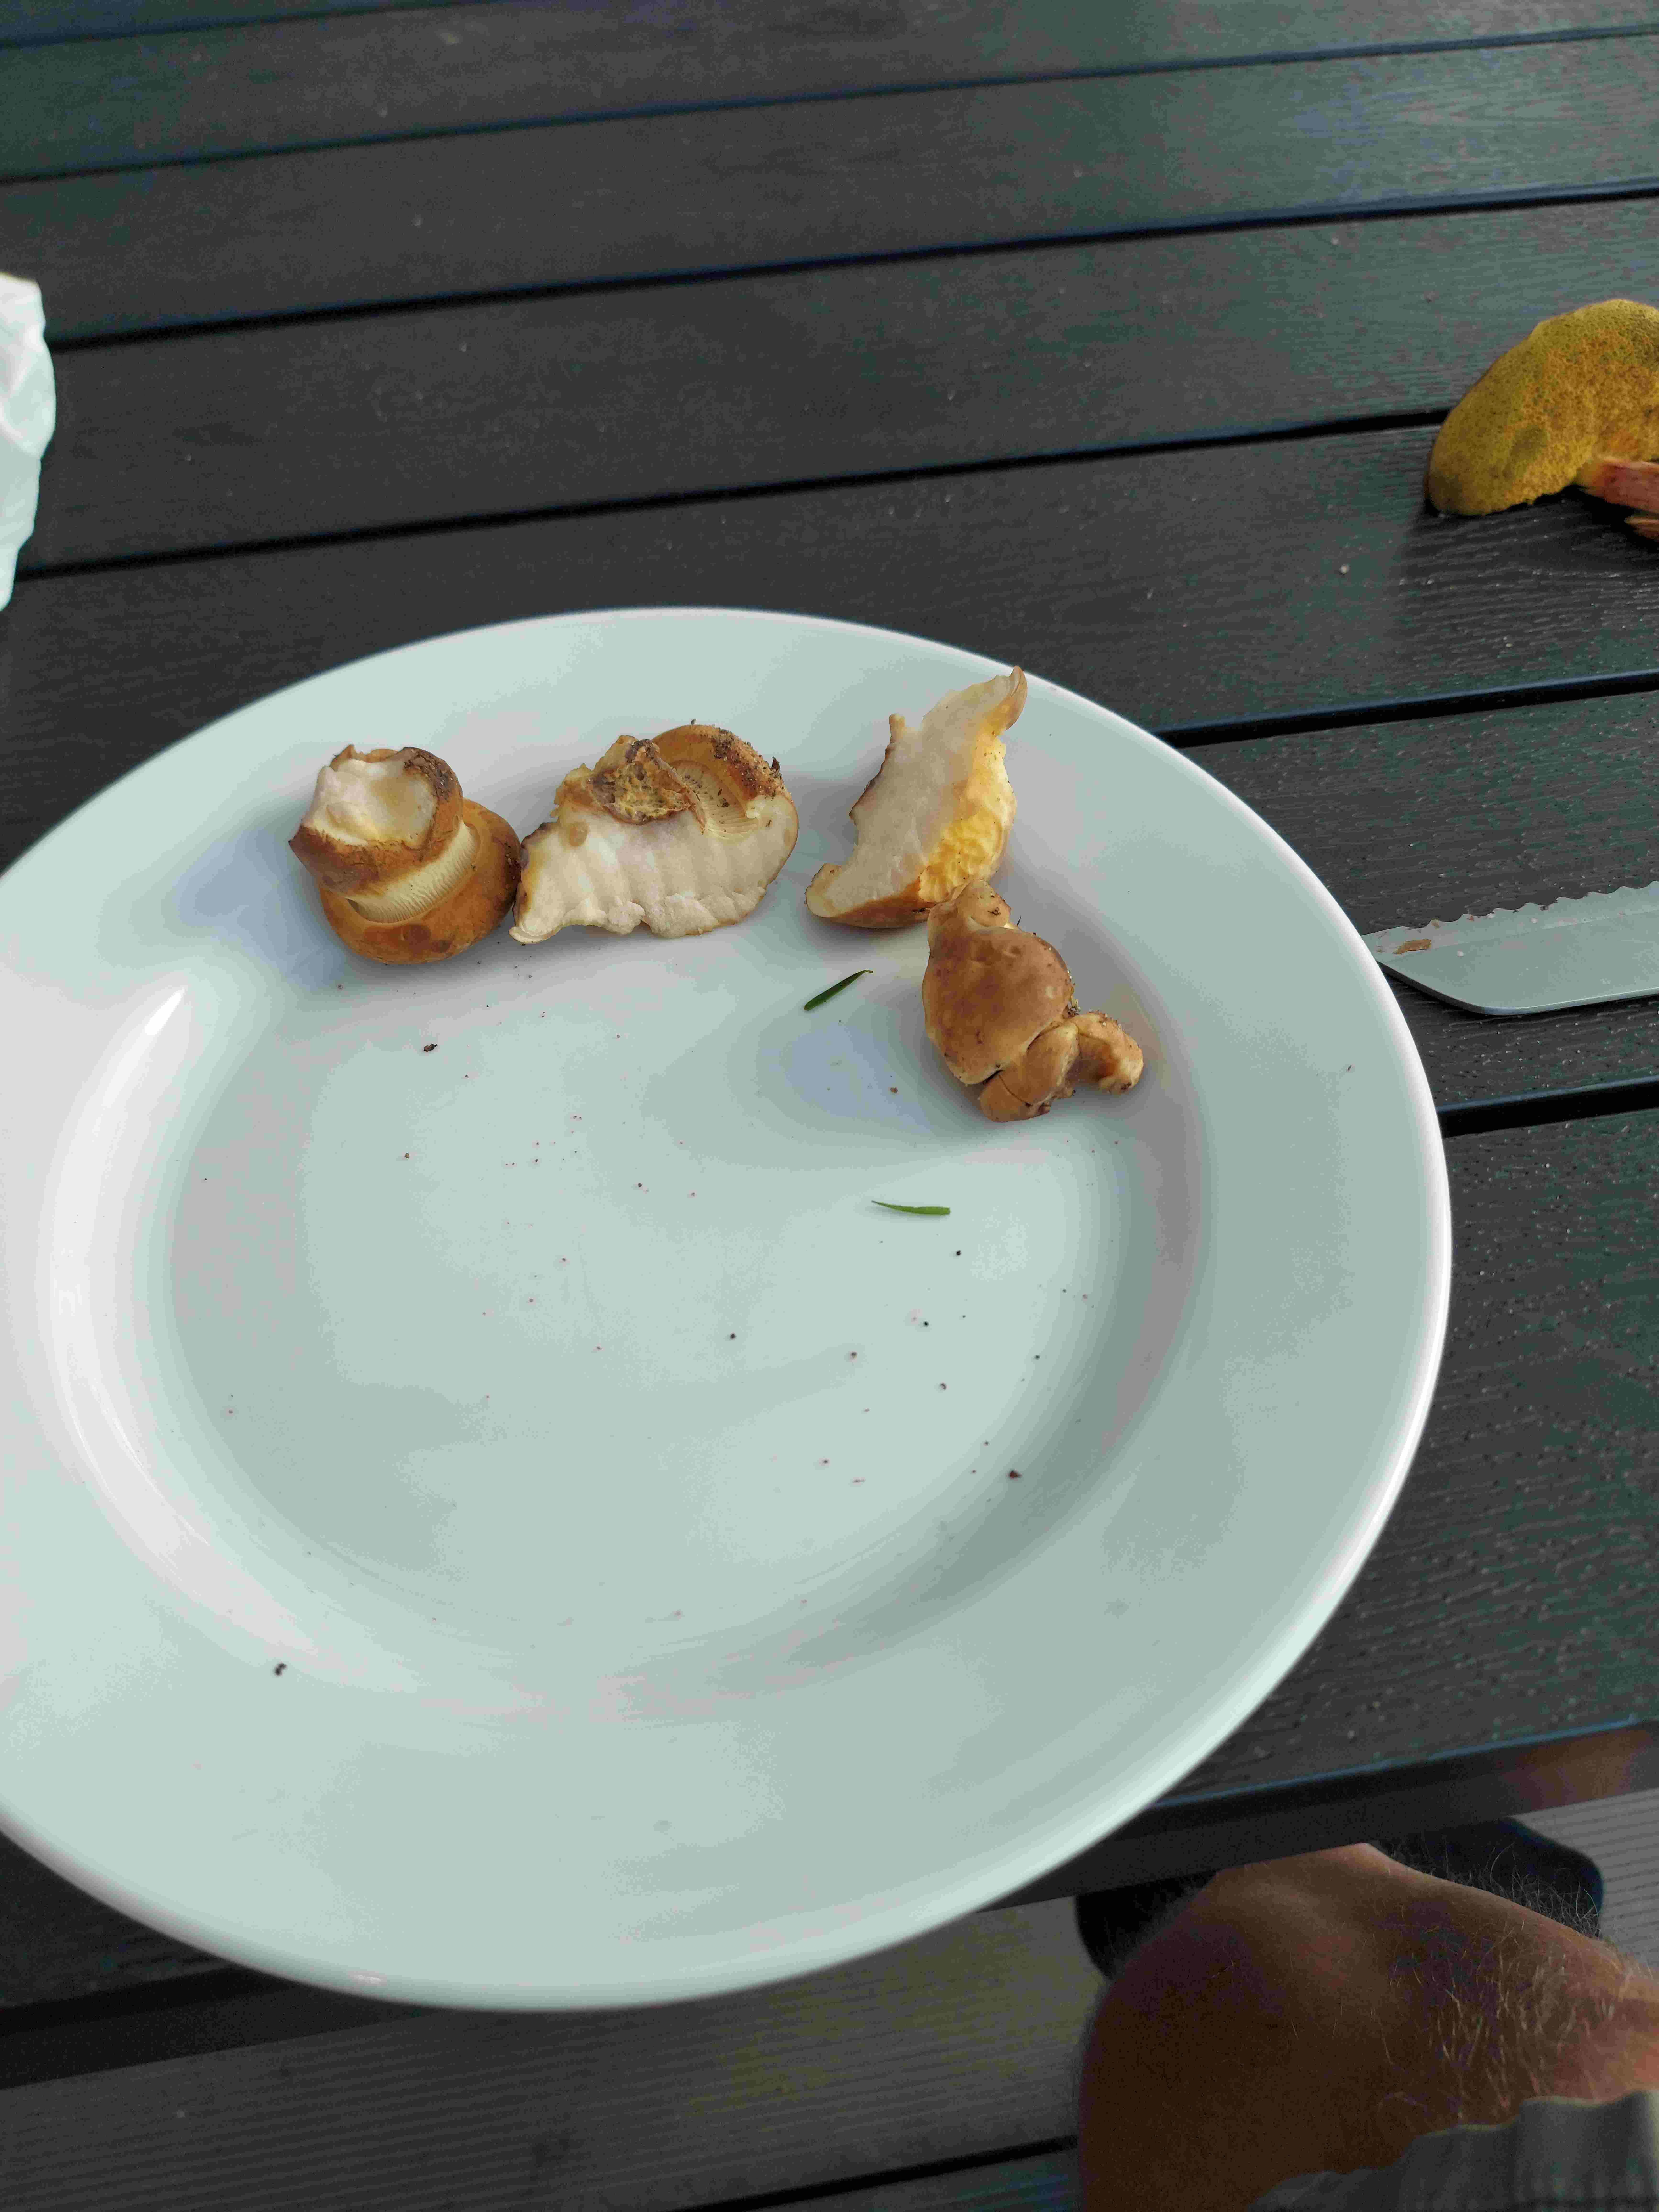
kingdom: Fungi
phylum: Basidiomycota
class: Agaricomycetes
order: Boletales
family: Tapinellaceae
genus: Tapinella
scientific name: Tapinella atrotomentosa
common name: sortfiltet viftesvamp
